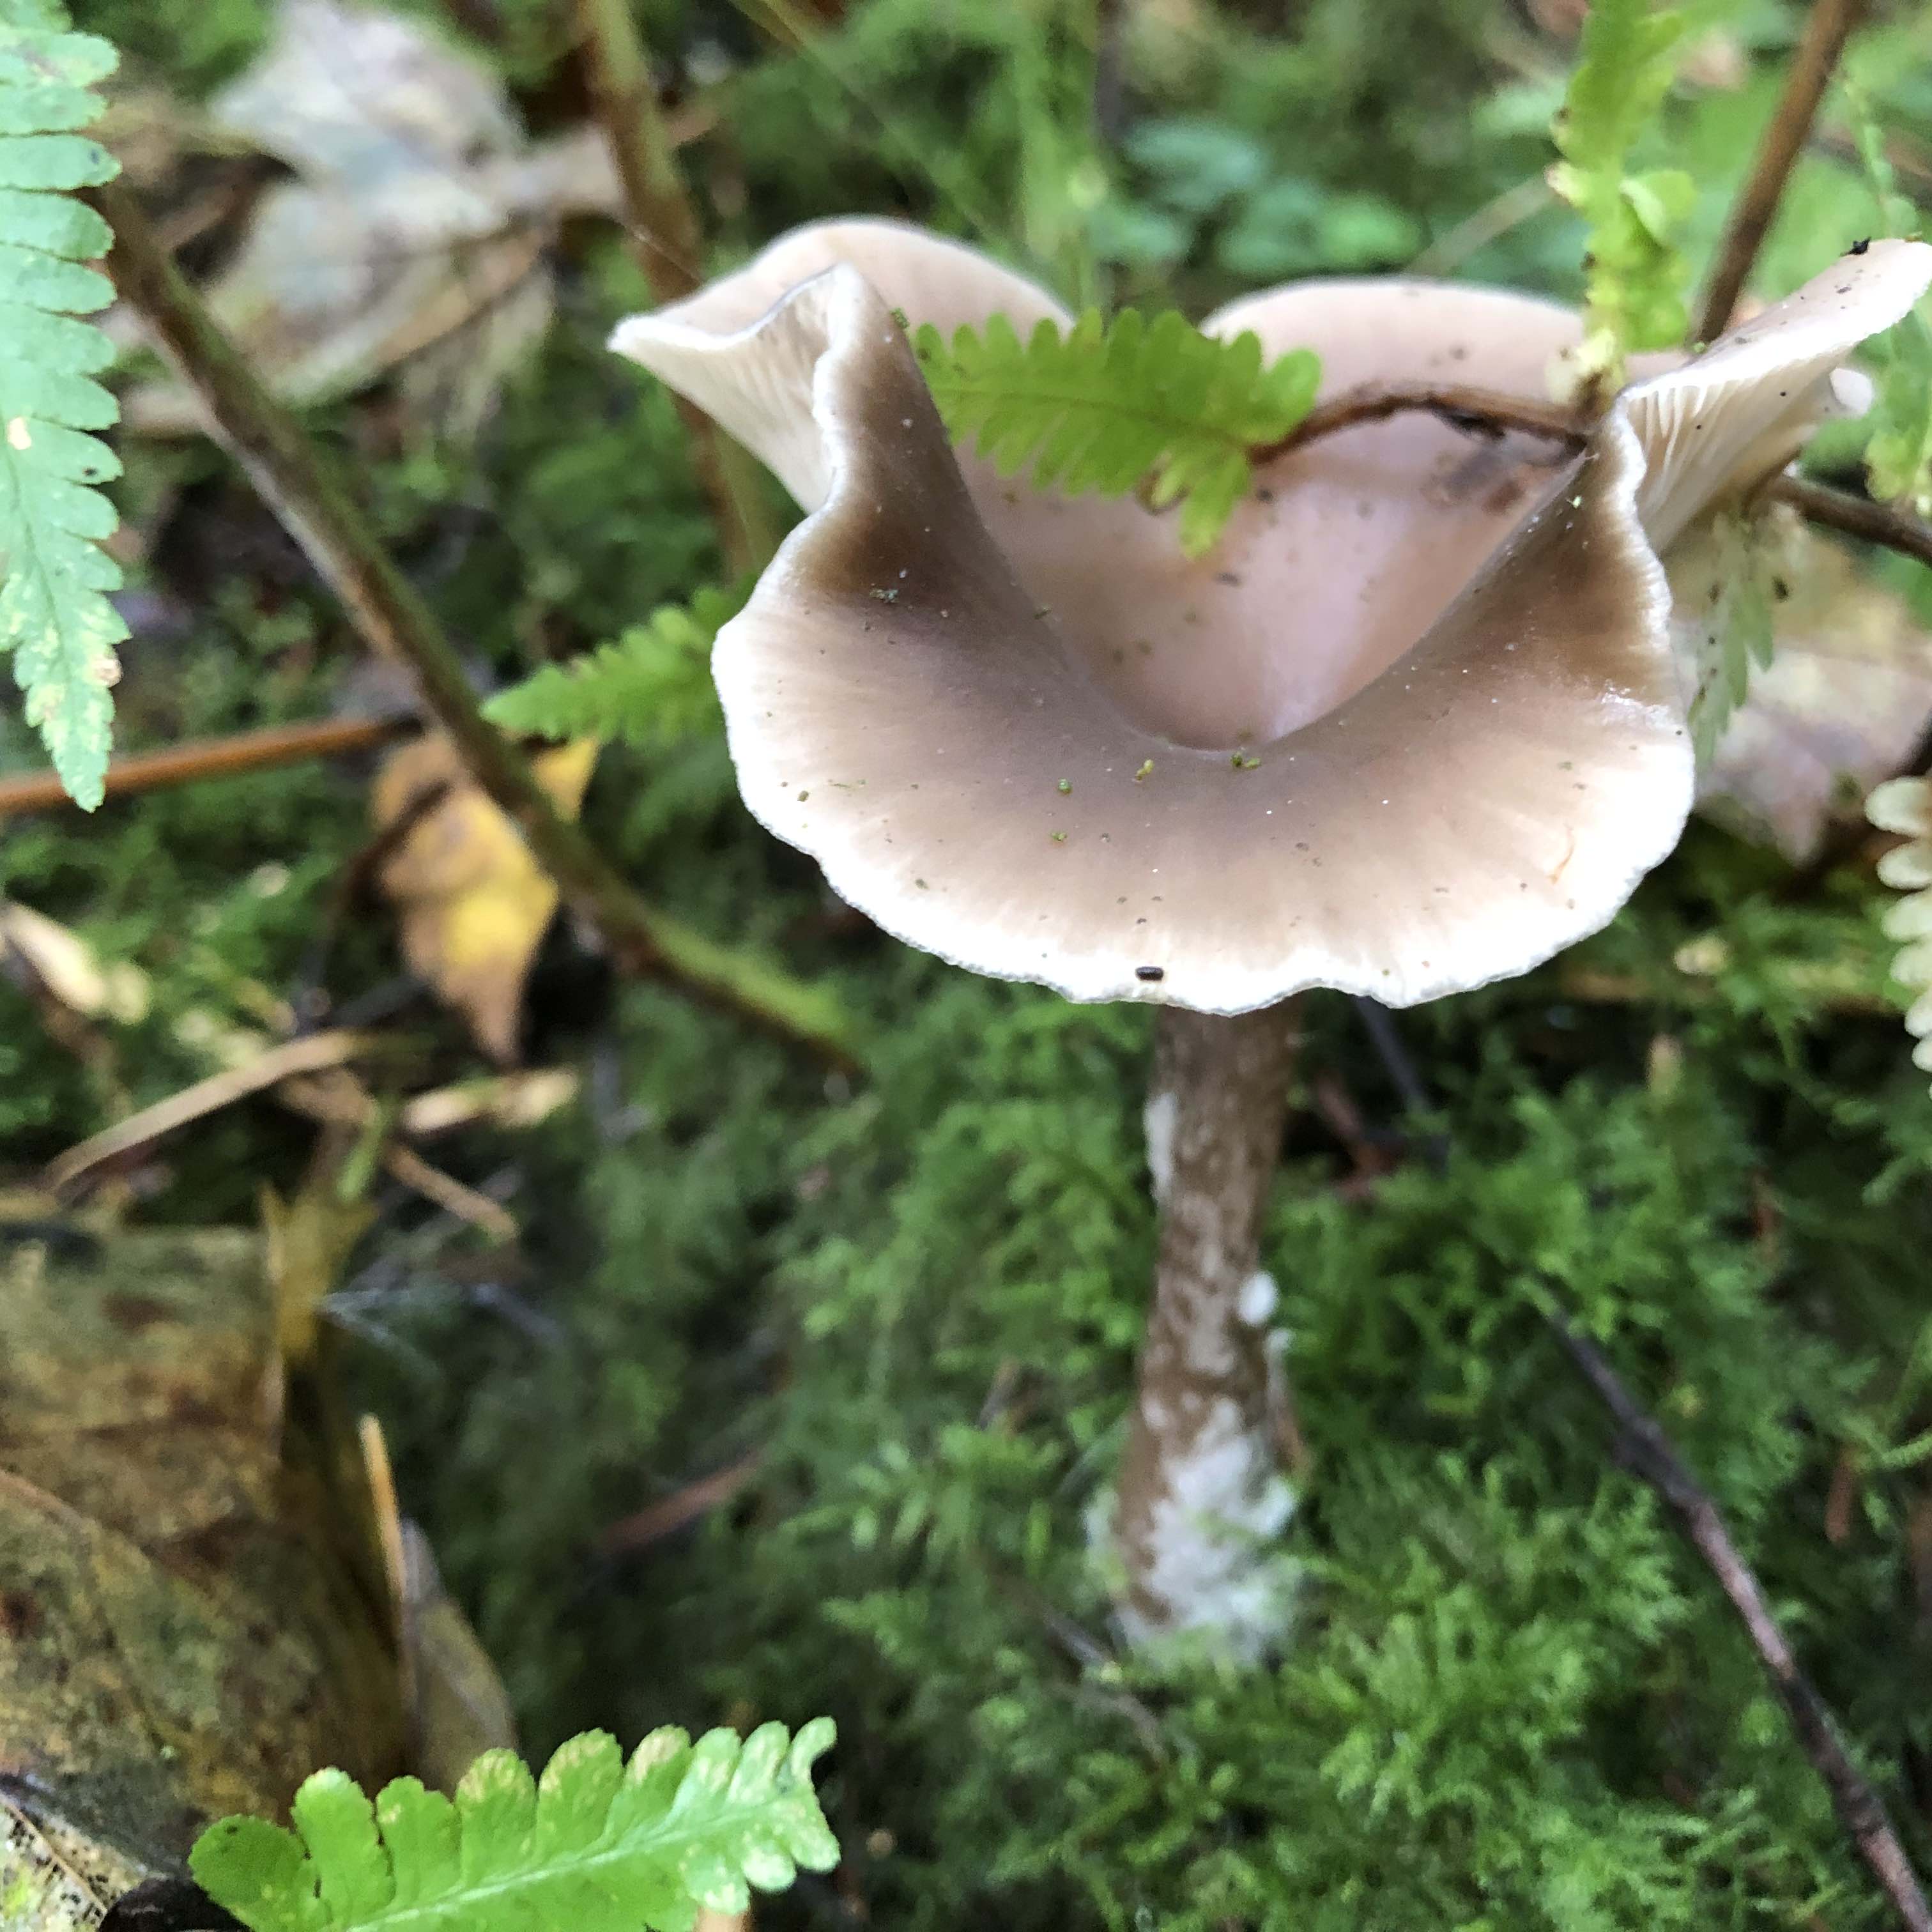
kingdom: Fungi
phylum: Basidiomycota
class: Agaricomycetes
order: Agaricales
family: Pseudoclitocybaceae
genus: Pseudoclitocybe
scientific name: Pseudoclitocybe cyathiformis
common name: almindelig bægertragthat
